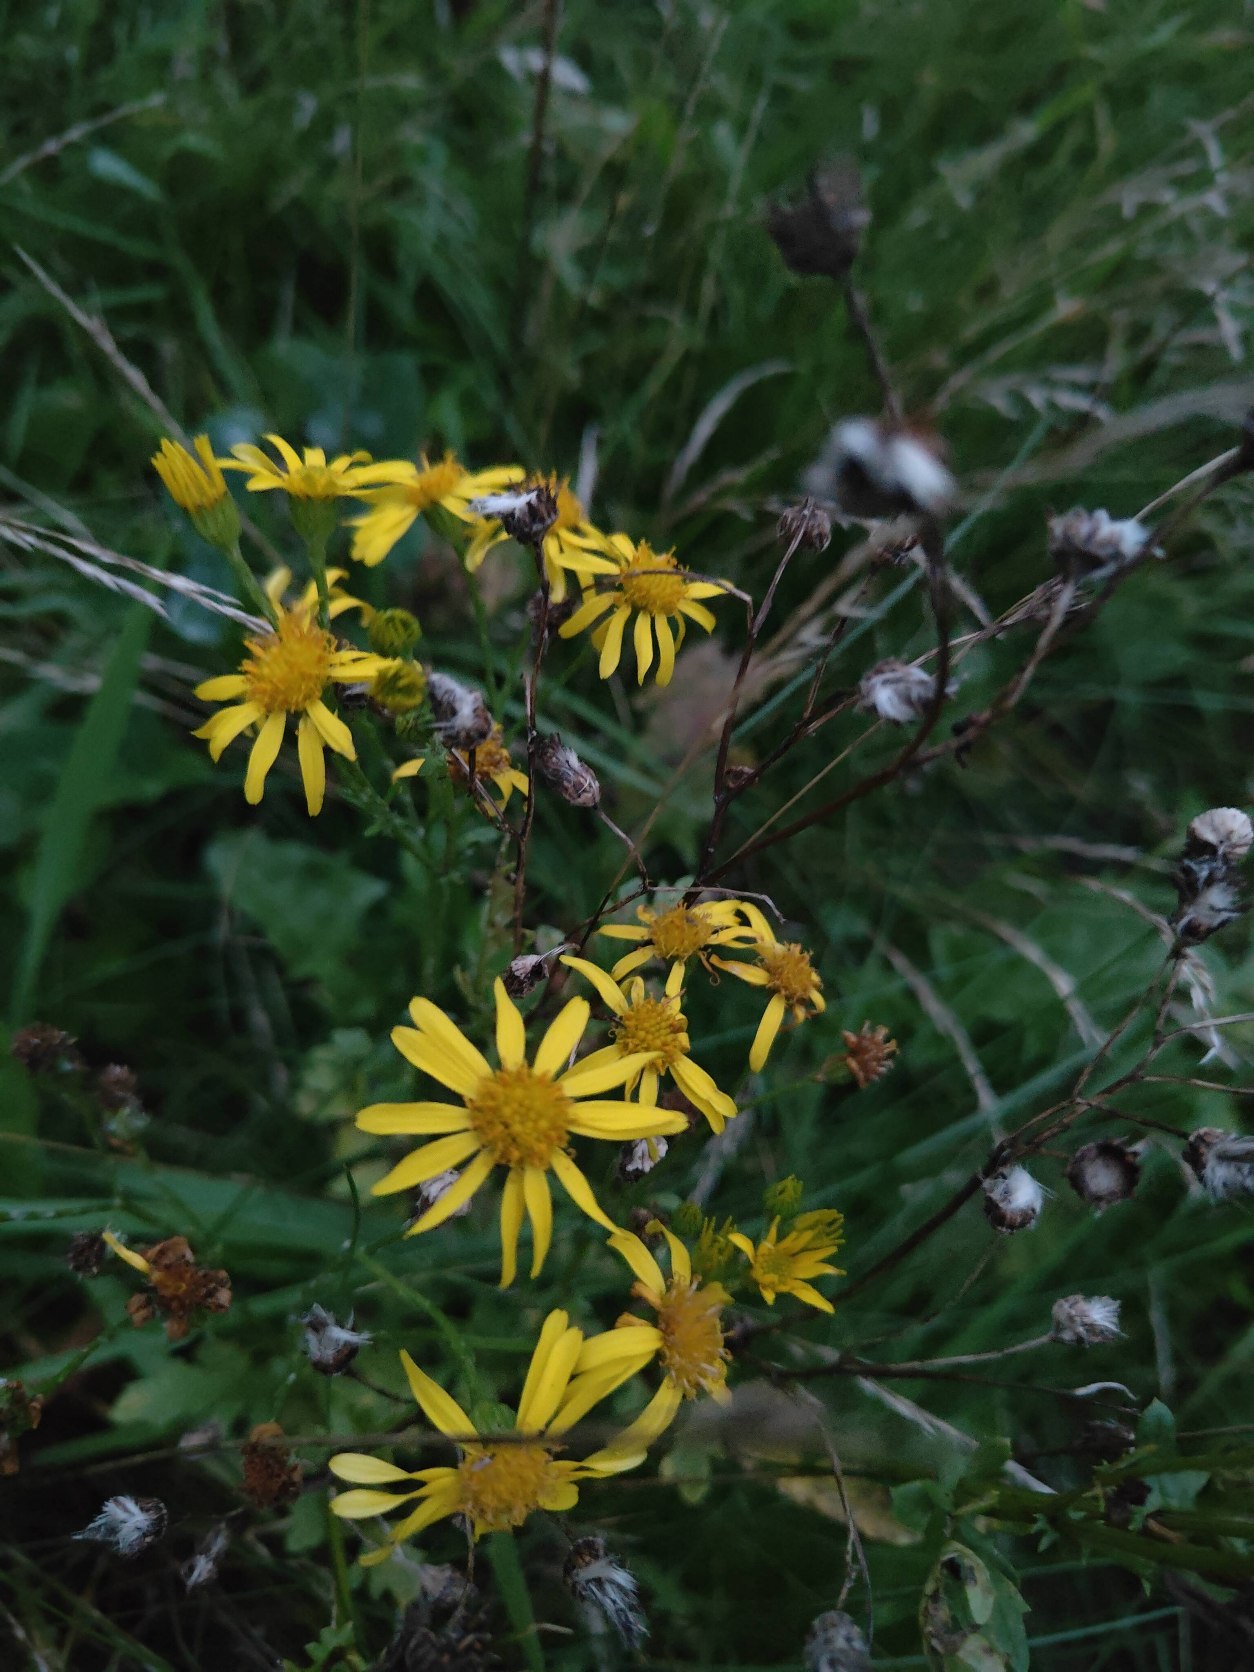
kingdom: Plantae
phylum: Tracheophyta
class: Magnoliopsida
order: Asterales
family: Asteraceae
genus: Jacobaea
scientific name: Jacobaea vulgaris
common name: Eng-brandbæger
